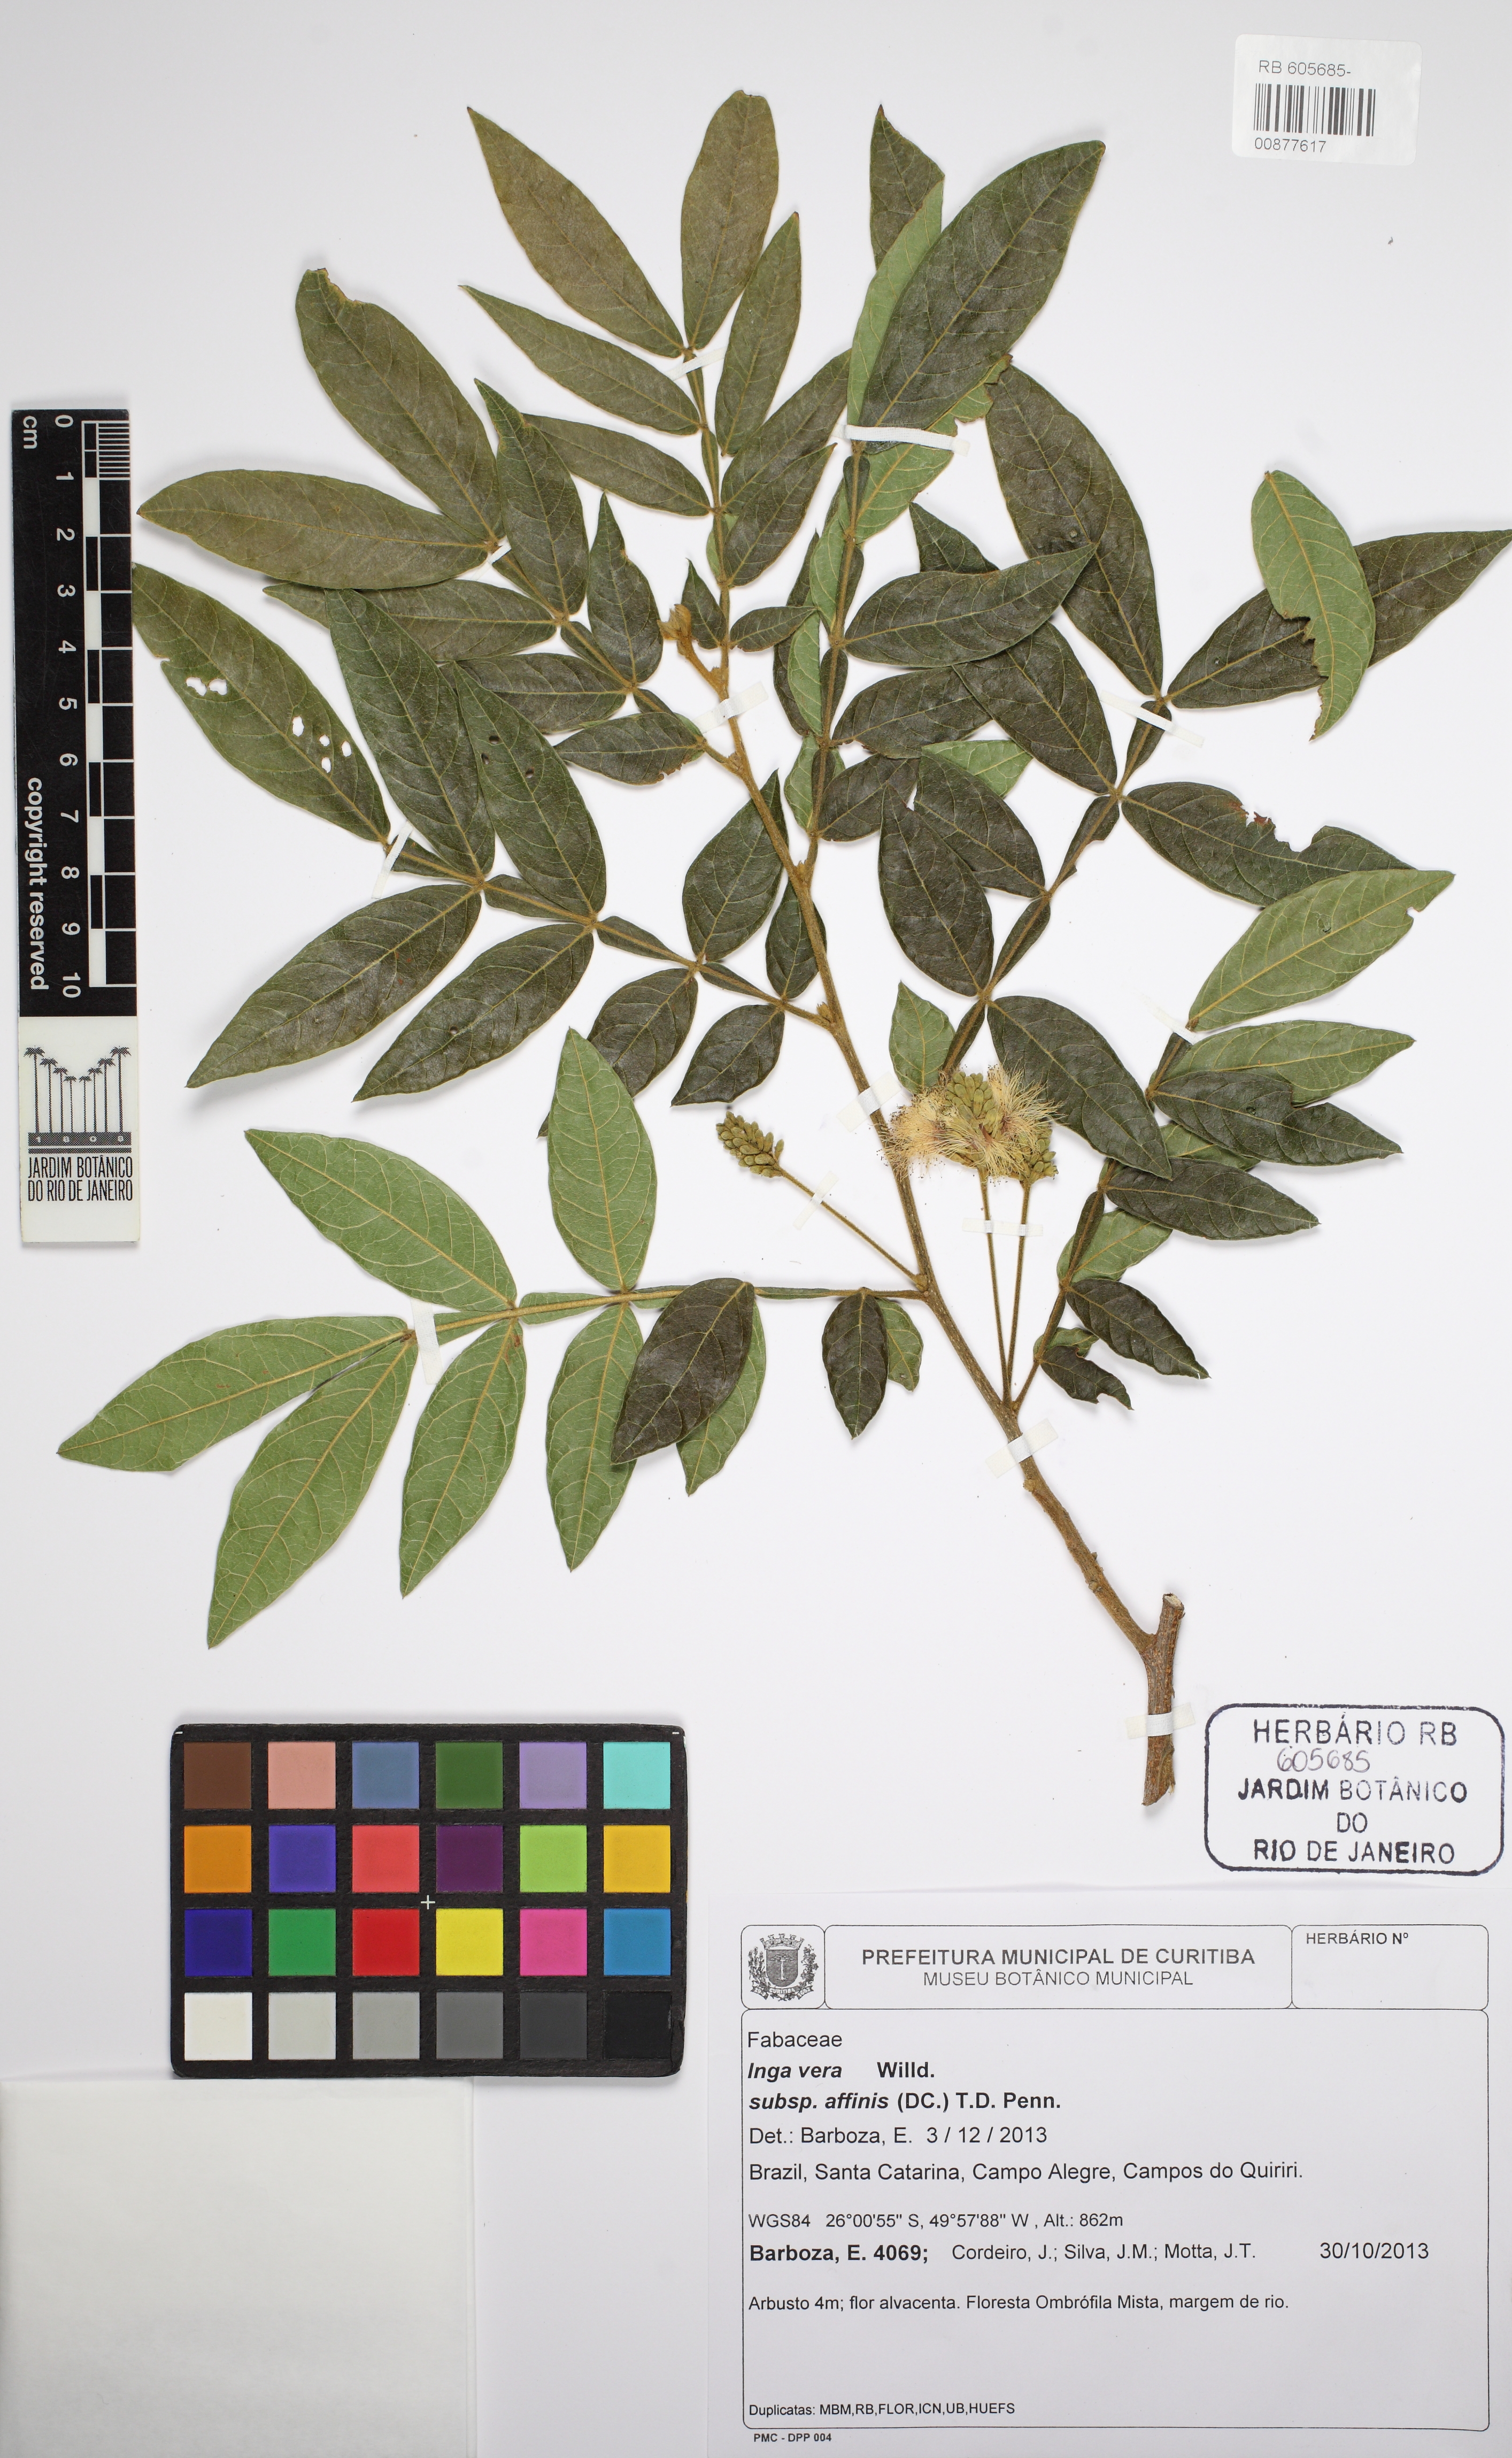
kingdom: Plantae
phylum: Tracheophyta
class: Magnoliopsida
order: Fabales
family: Fabaceae
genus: Inga
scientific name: Inga affinis
